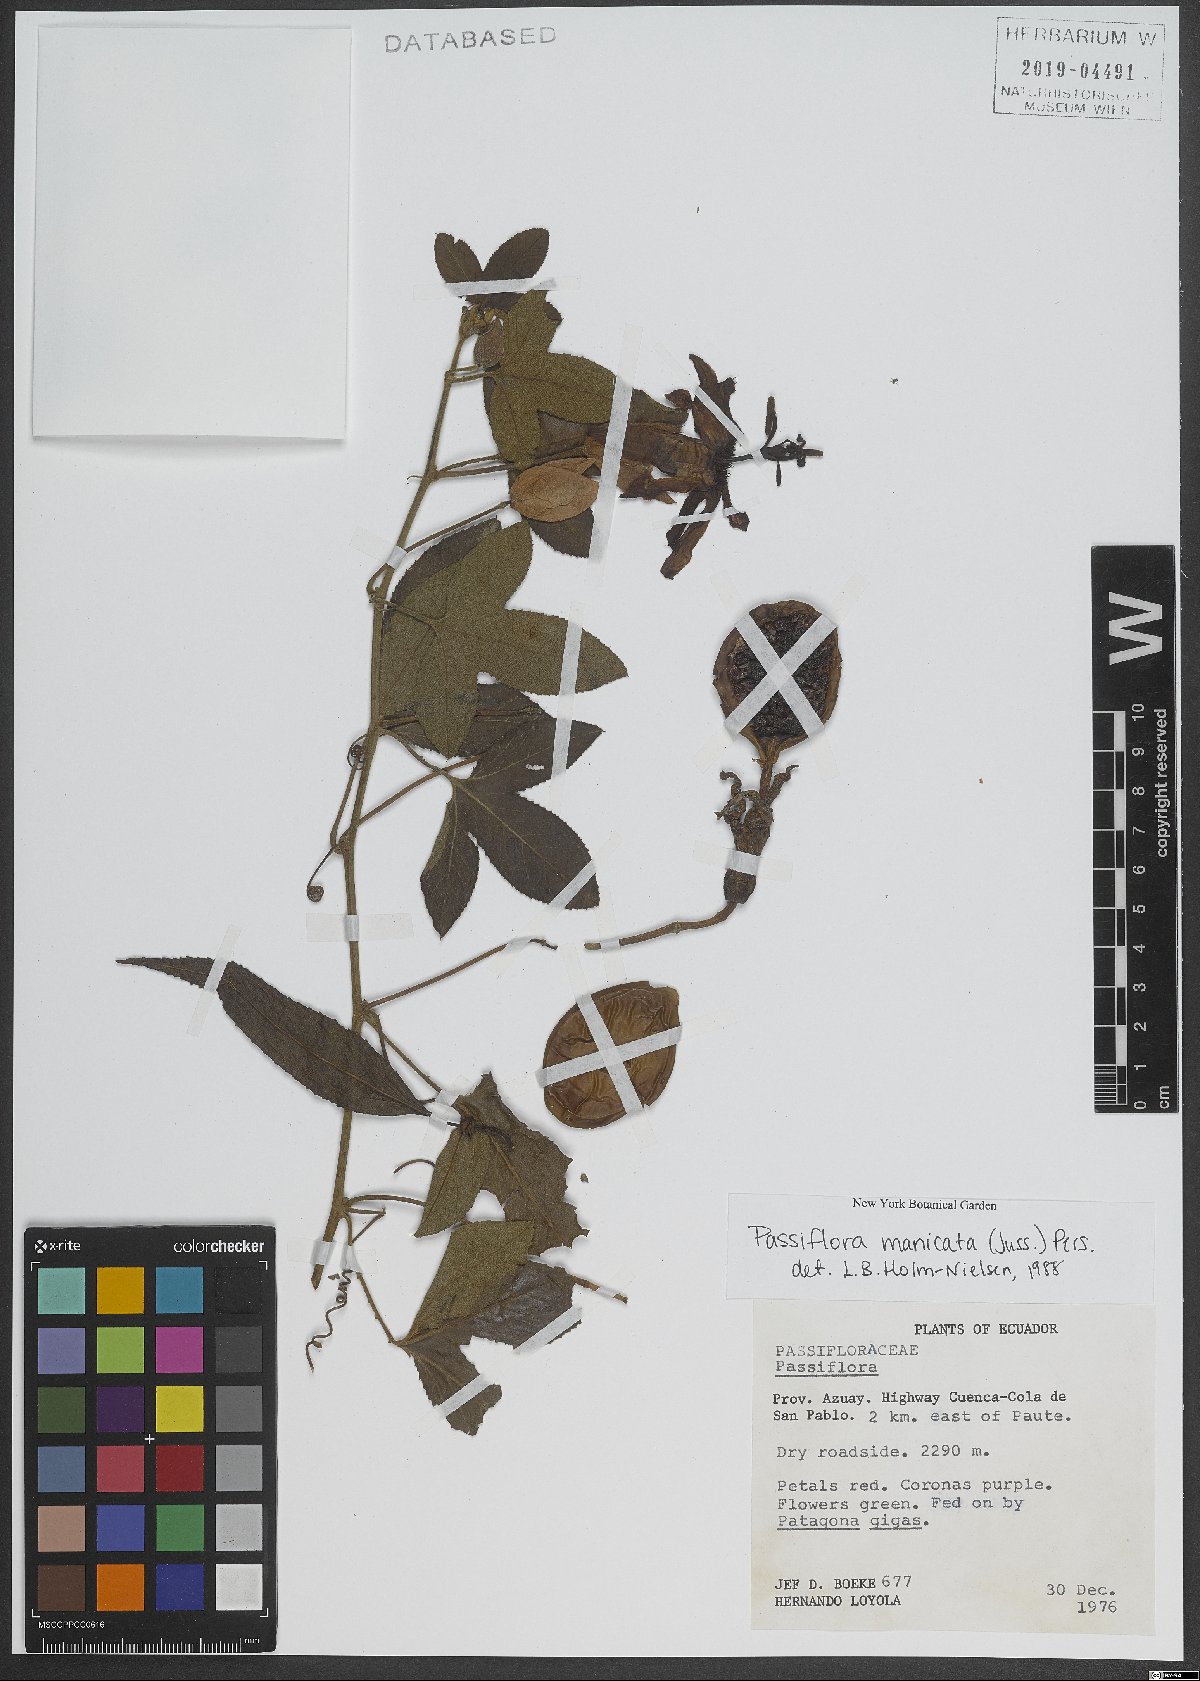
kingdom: Plantae
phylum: Tracheophyta
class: Magnoliopsida
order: Malpighiales
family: Passifloraceae
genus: Passiflora
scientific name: Passiflora manicata
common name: Red passionflower
